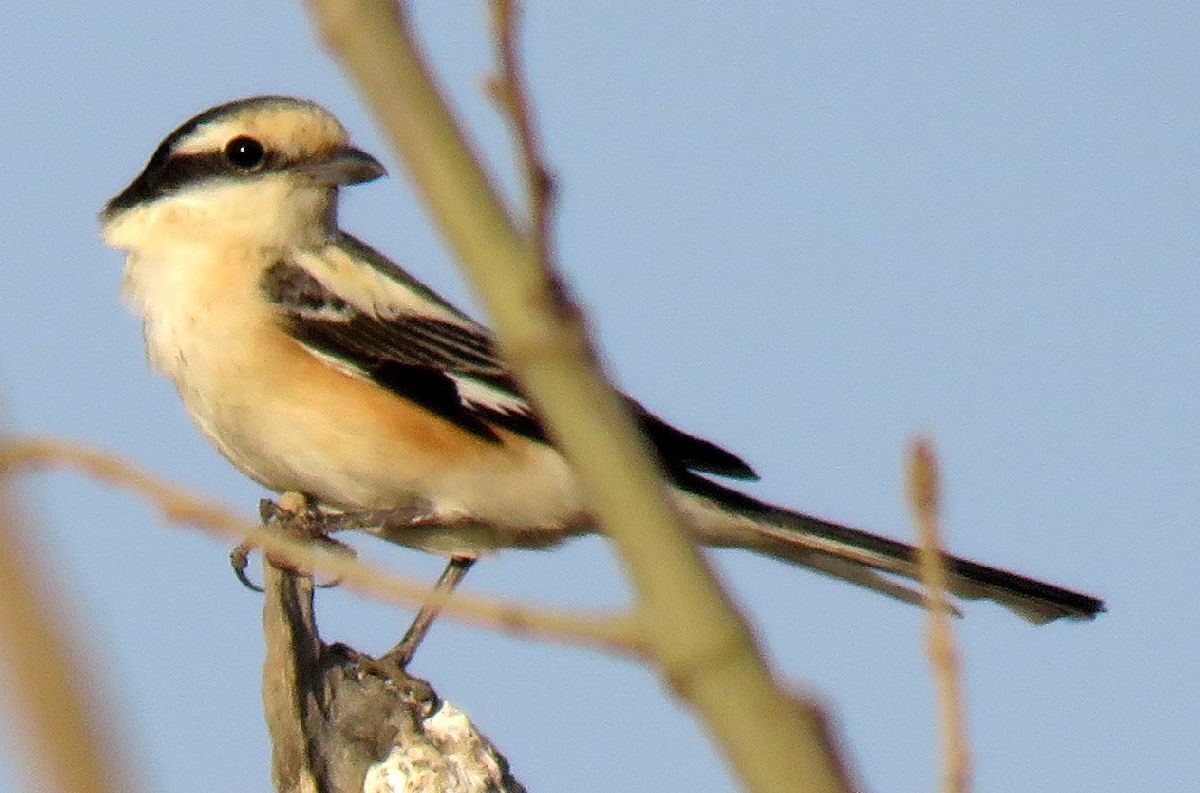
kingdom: Animalia
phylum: Chordata
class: Aves
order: Passeriformes
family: Laniidae
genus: Lanius
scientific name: Lanius nubicus
